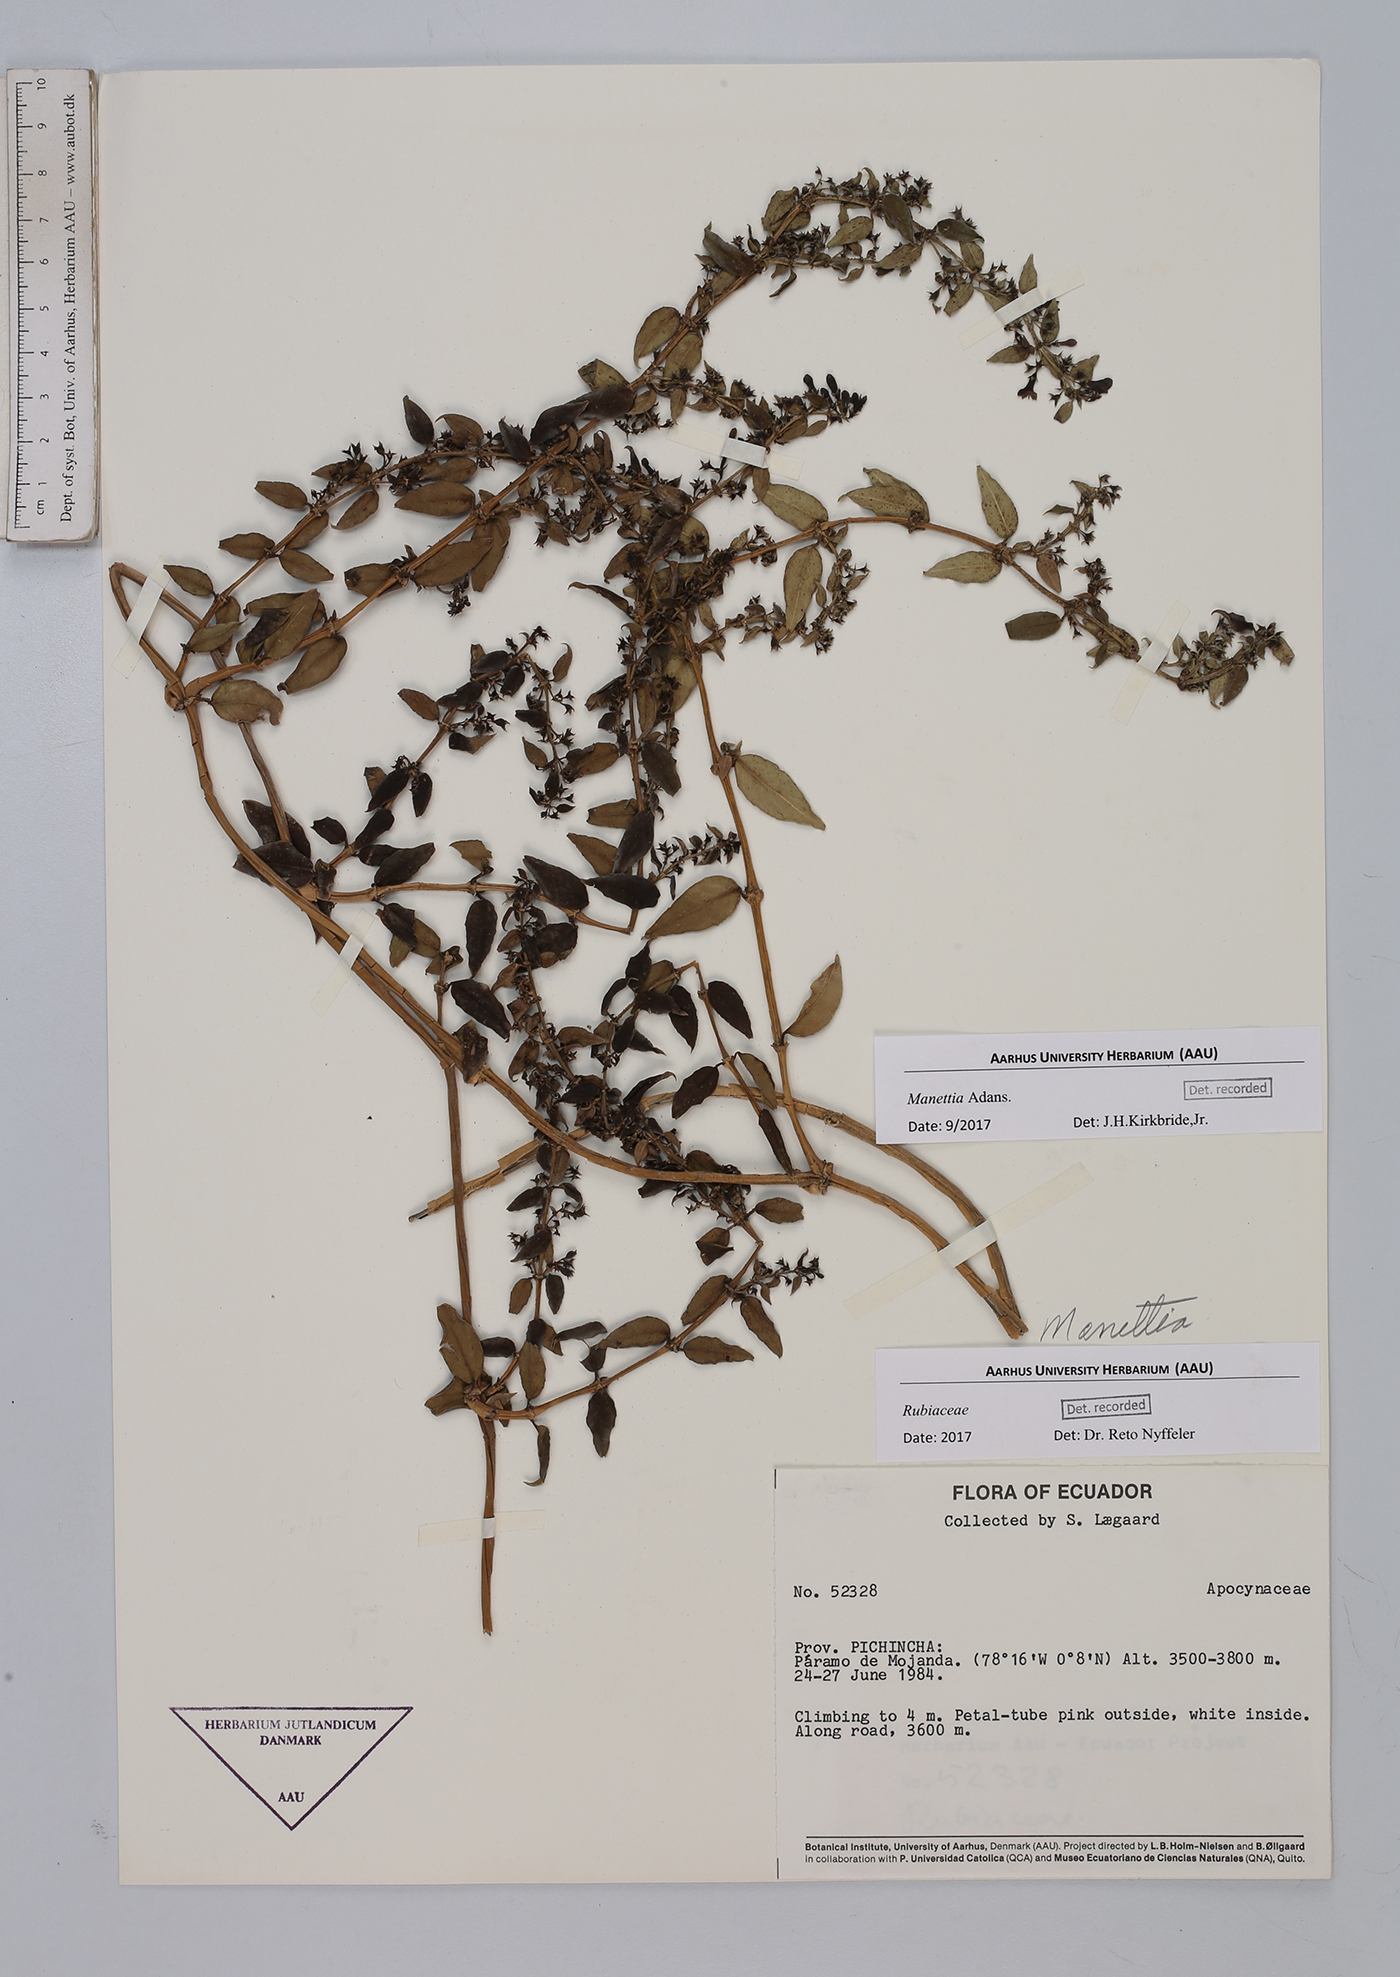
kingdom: Plantae
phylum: Tracheophyta
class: Magnoliopsida
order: Gentianales
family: Rubiaceae
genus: Manettia
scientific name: Manettia
